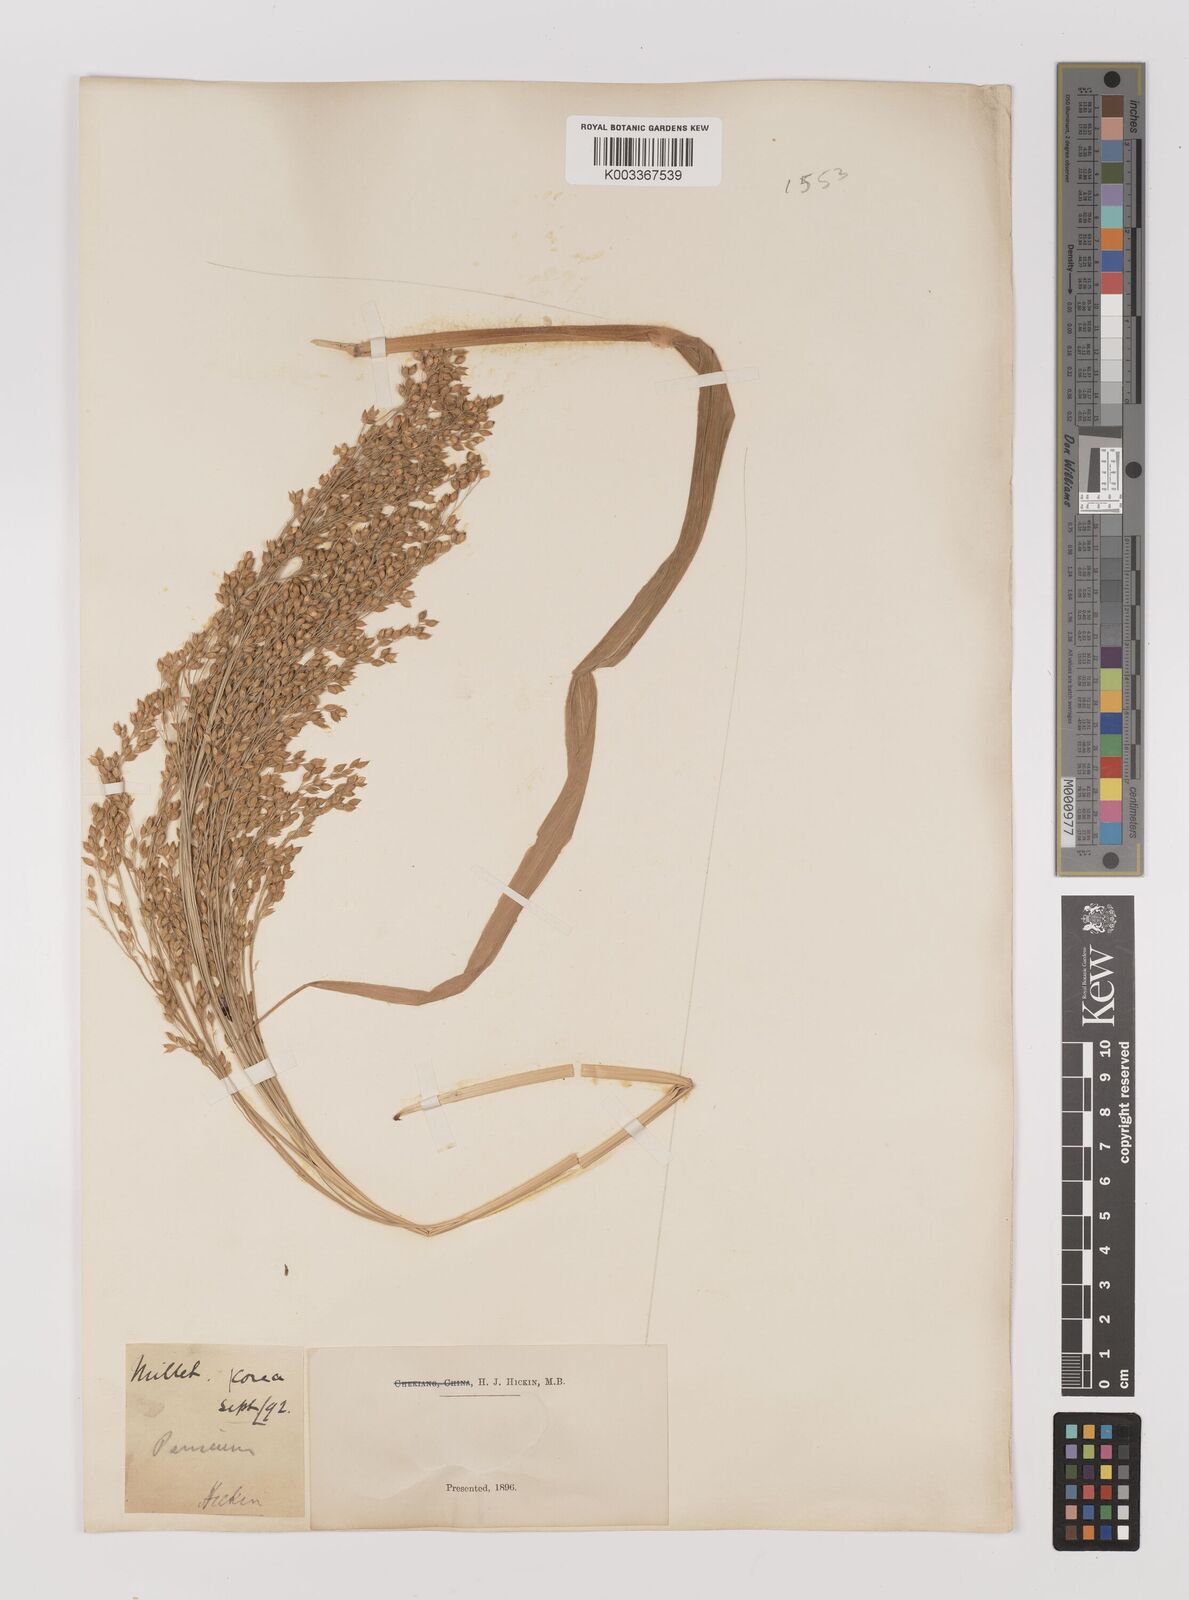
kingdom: Plantae
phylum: Tracheophyta
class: Liliopsida
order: Poales
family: Poaceae
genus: Panicum
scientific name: Panicum miliaceum
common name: Common millet
